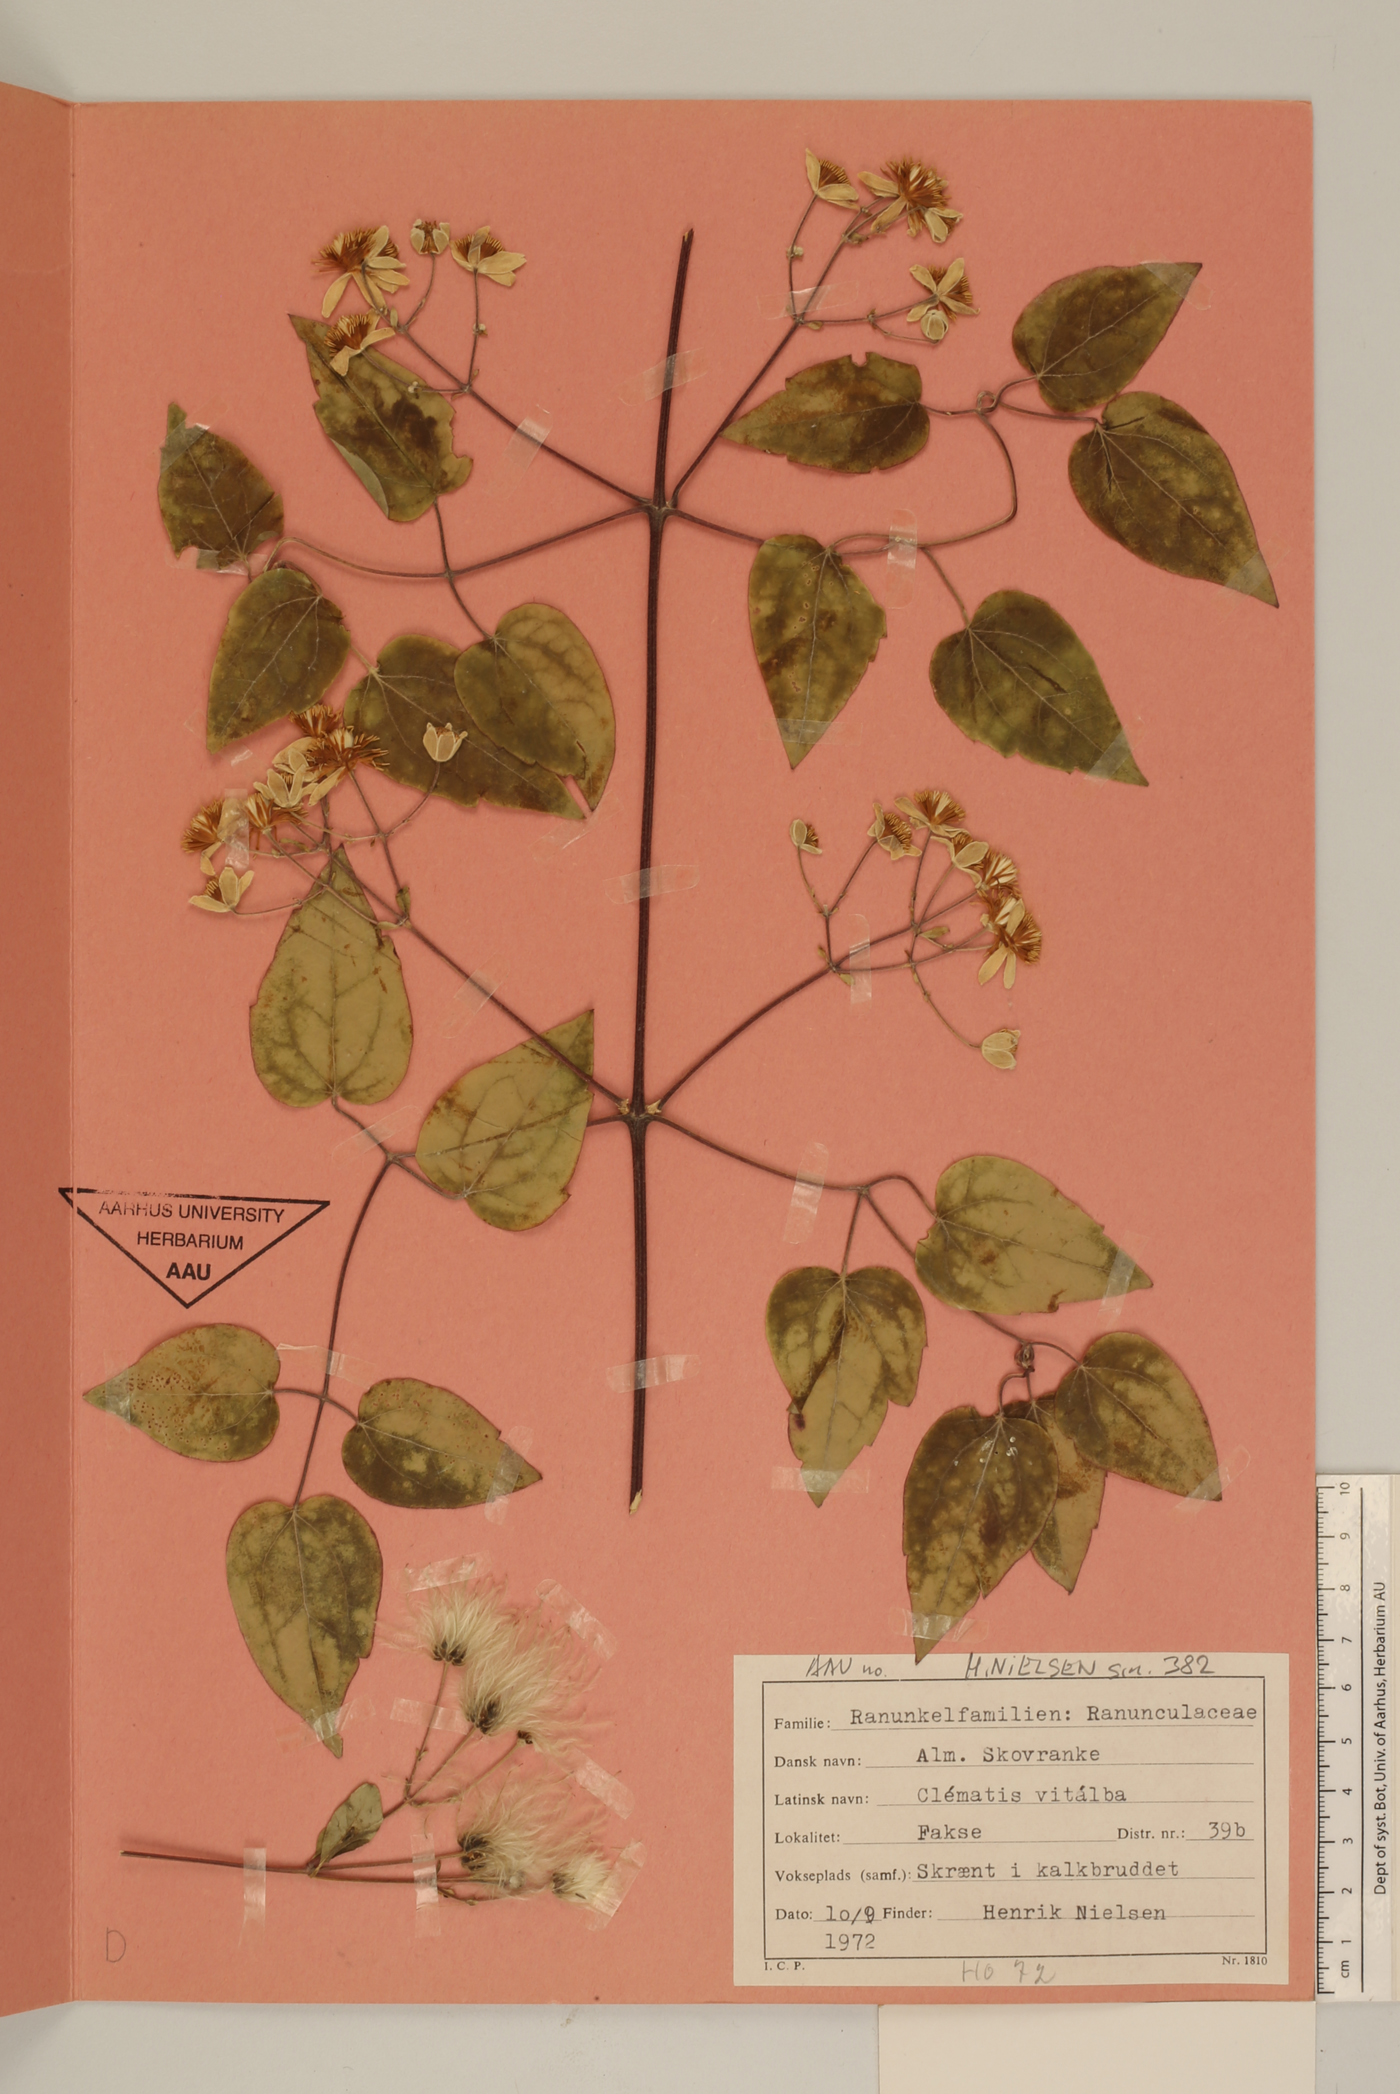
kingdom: Plantae
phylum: Tracheophyta
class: Magnoliopsida
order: Ranunculales
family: Ranunculaceae
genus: Clematis
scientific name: Clematis vitalba
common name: Evergreen clematis
